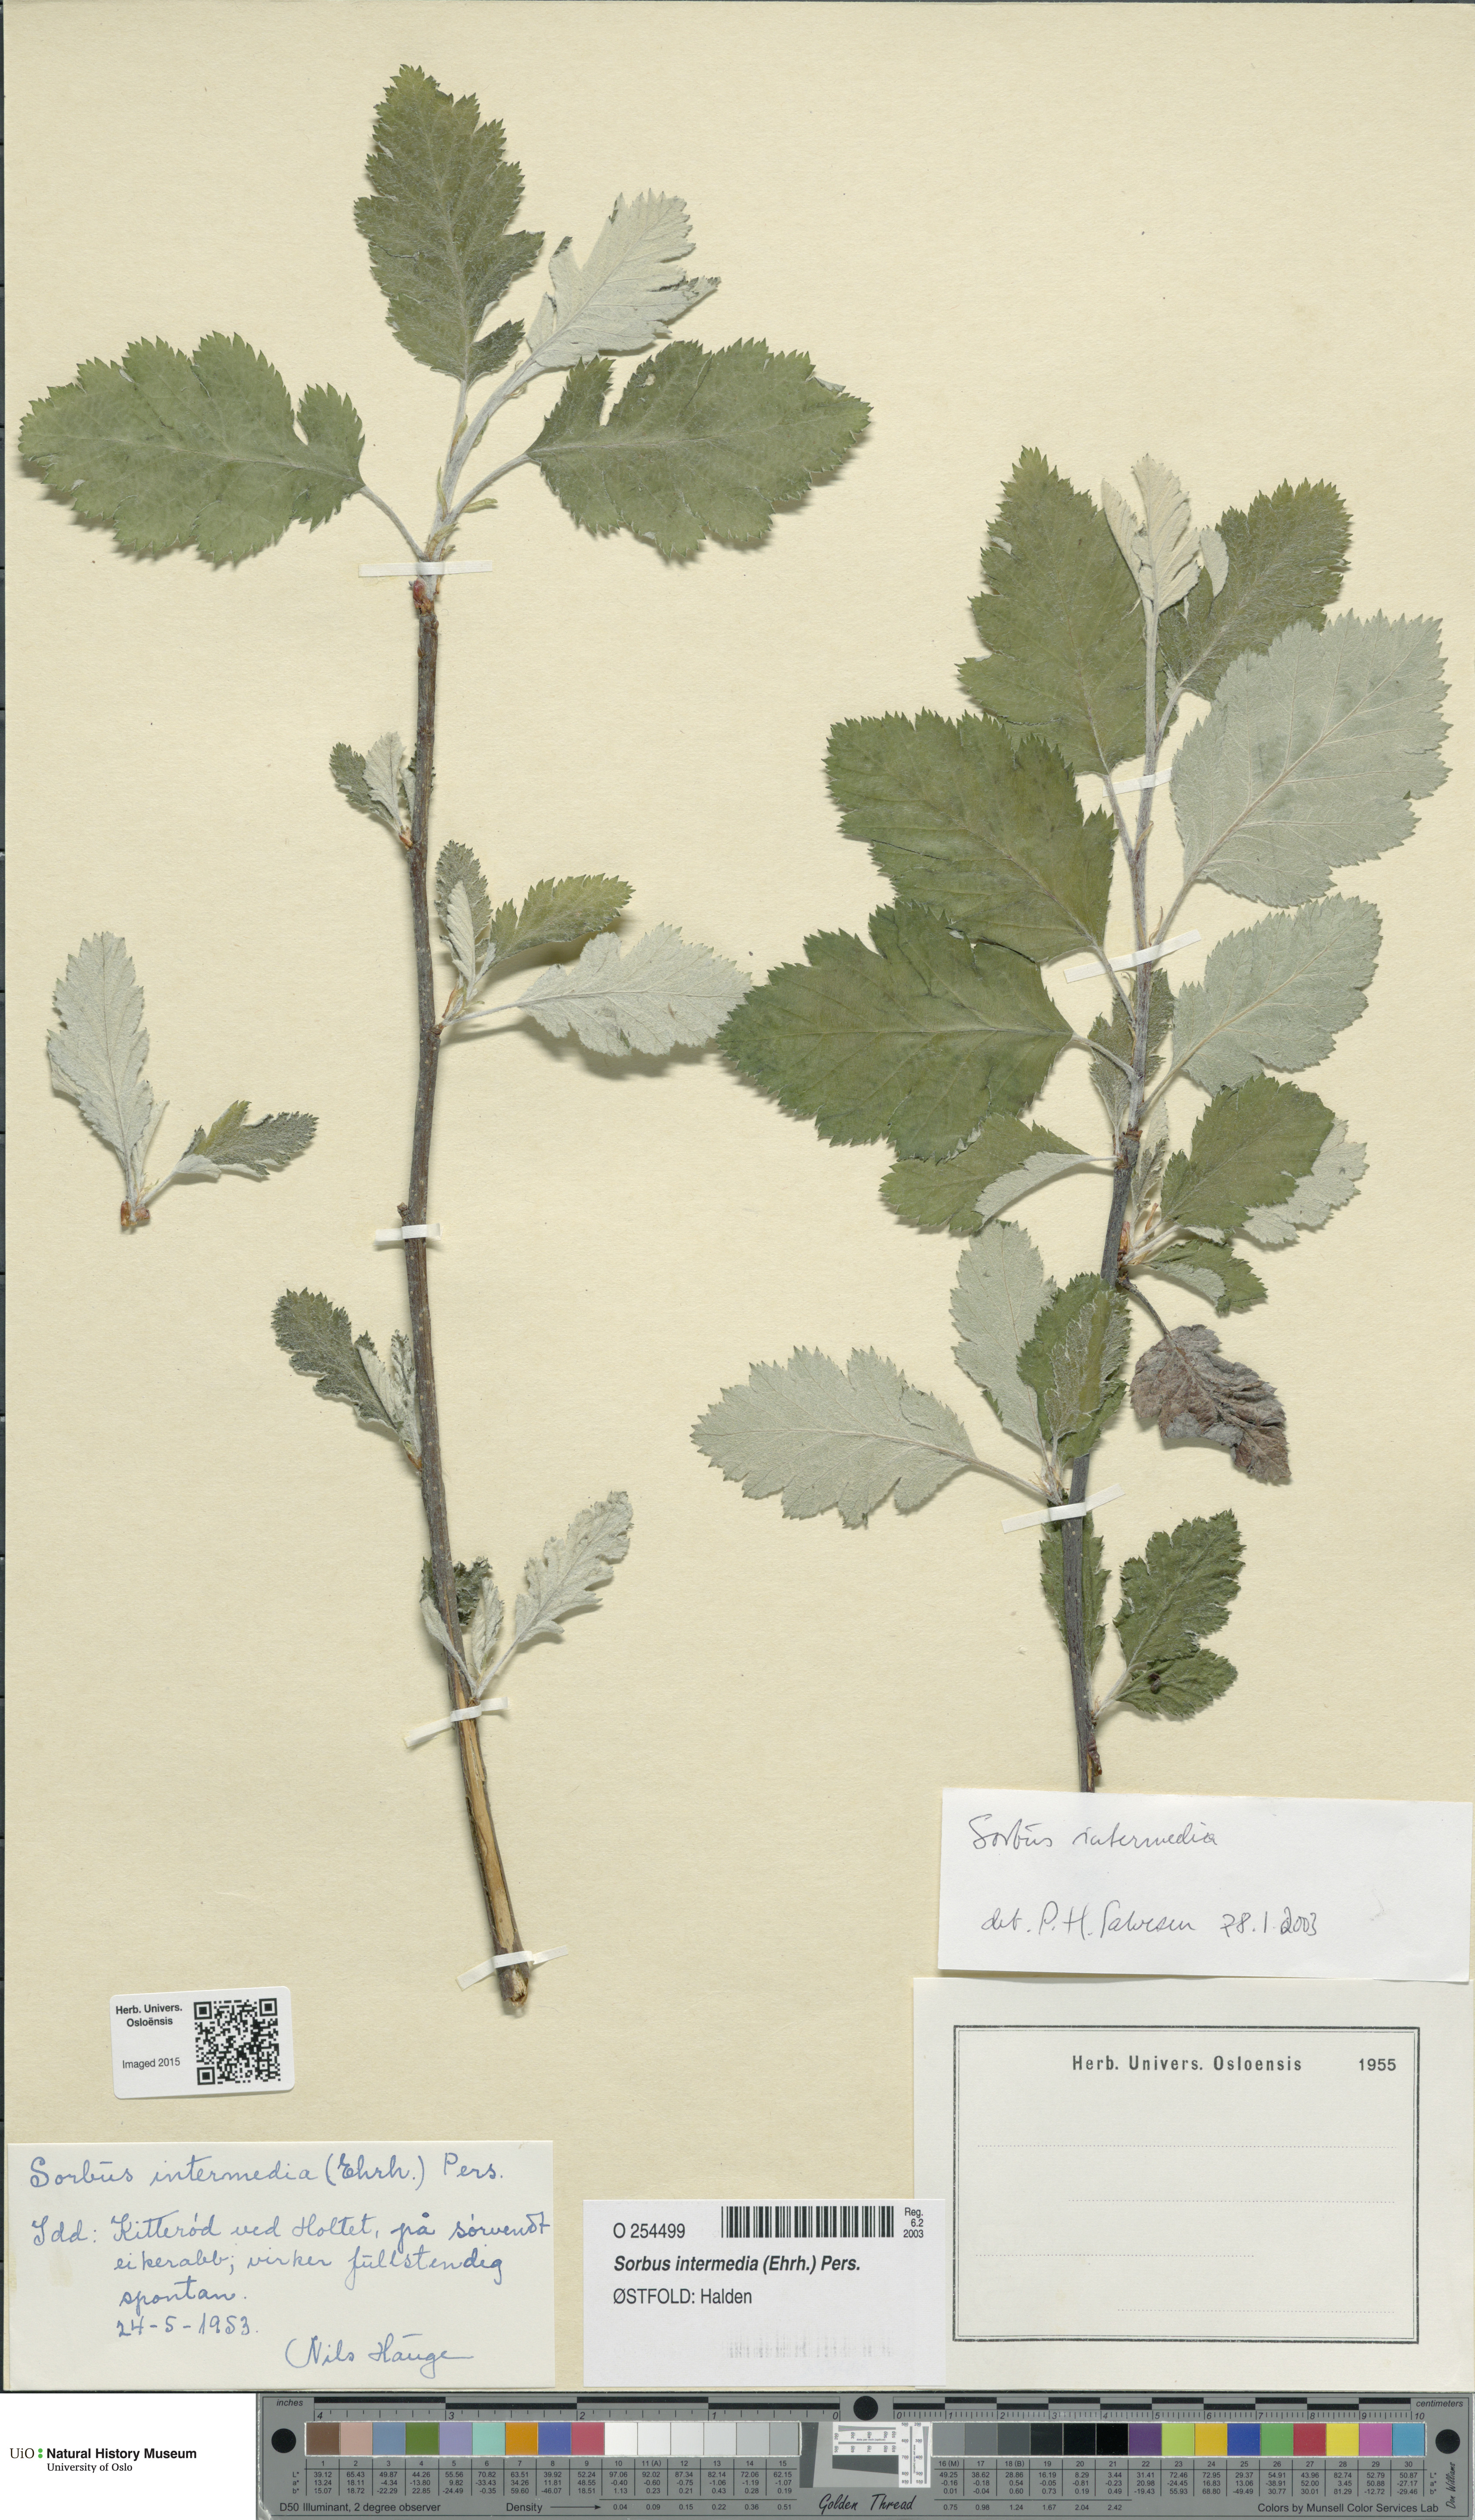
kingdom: Plantae
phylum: Tracheophyta
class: Magnoliopsida
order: Rosales
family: Rosaceae
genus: Scandosorbus
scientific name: Scandosorbus intermedia
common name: Swedish whitebeam
